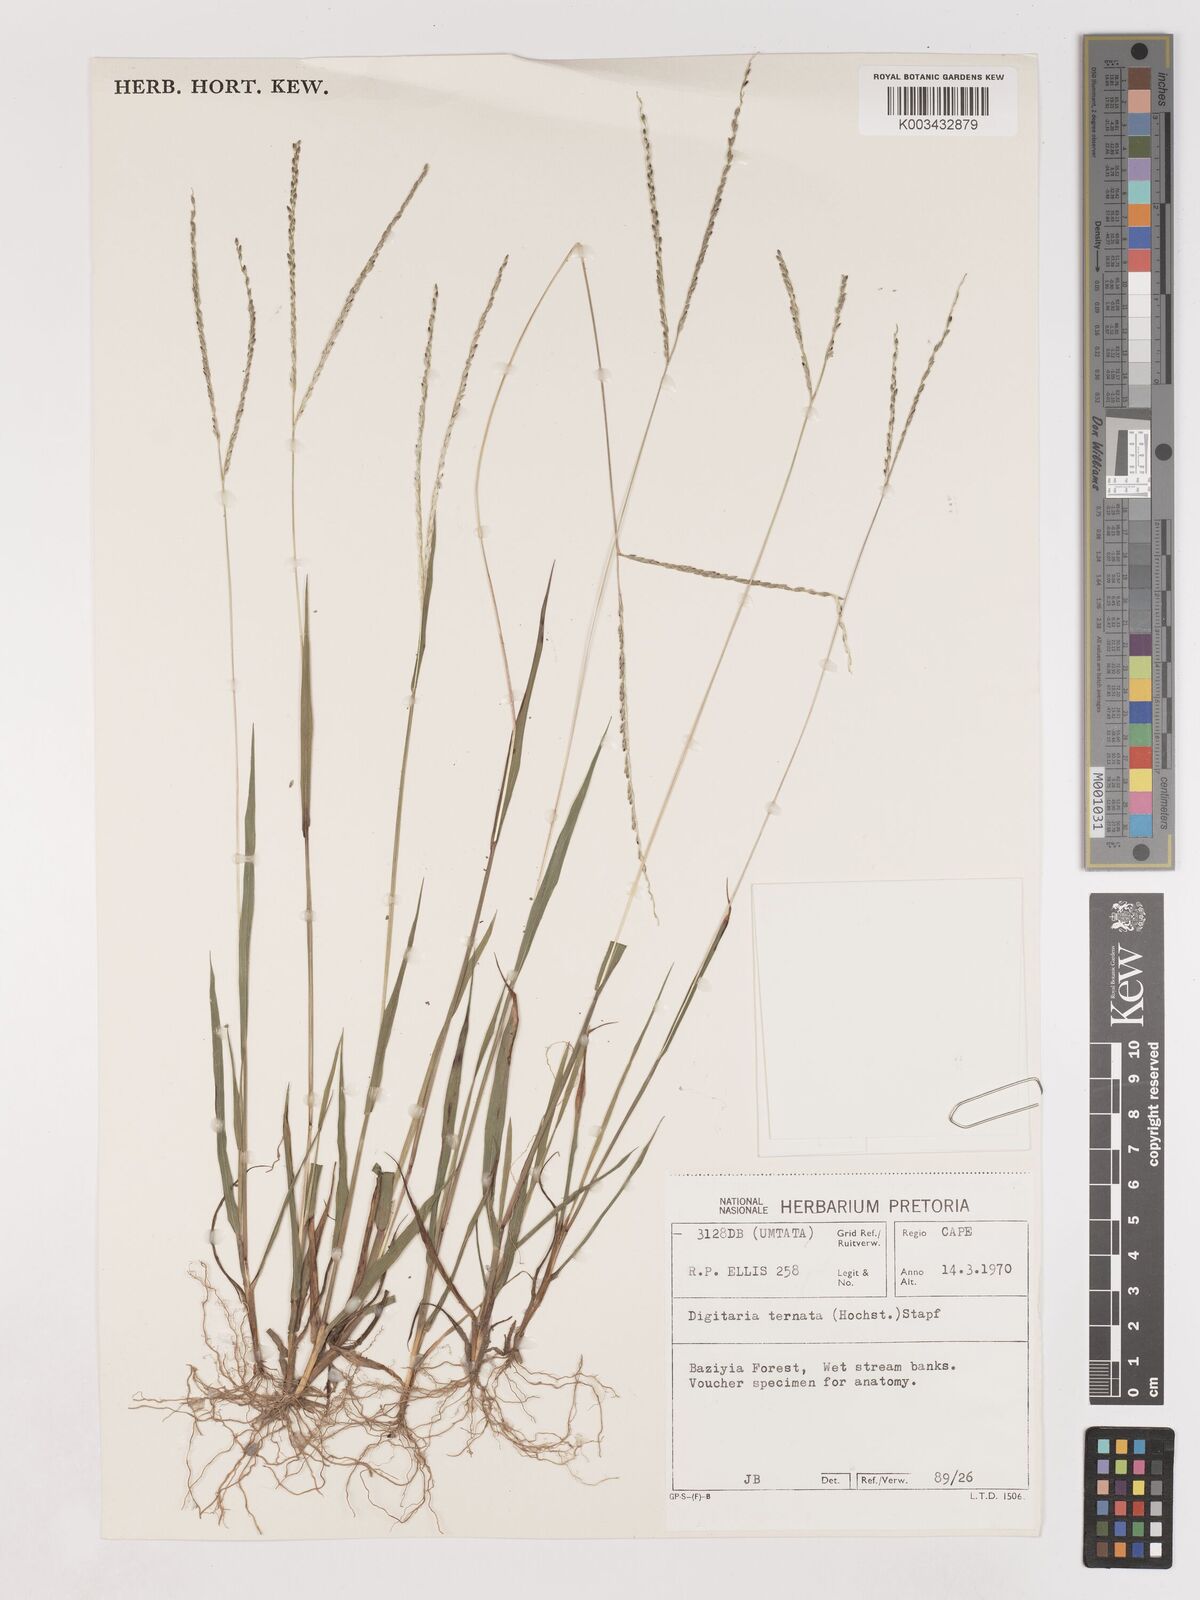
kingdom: Plantae
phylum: Tracheophyta
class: Liliopsida
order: Poales
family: Poaceae
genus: Digitaria
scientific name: Digitaria ternata
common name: Blackseed crabgrass
